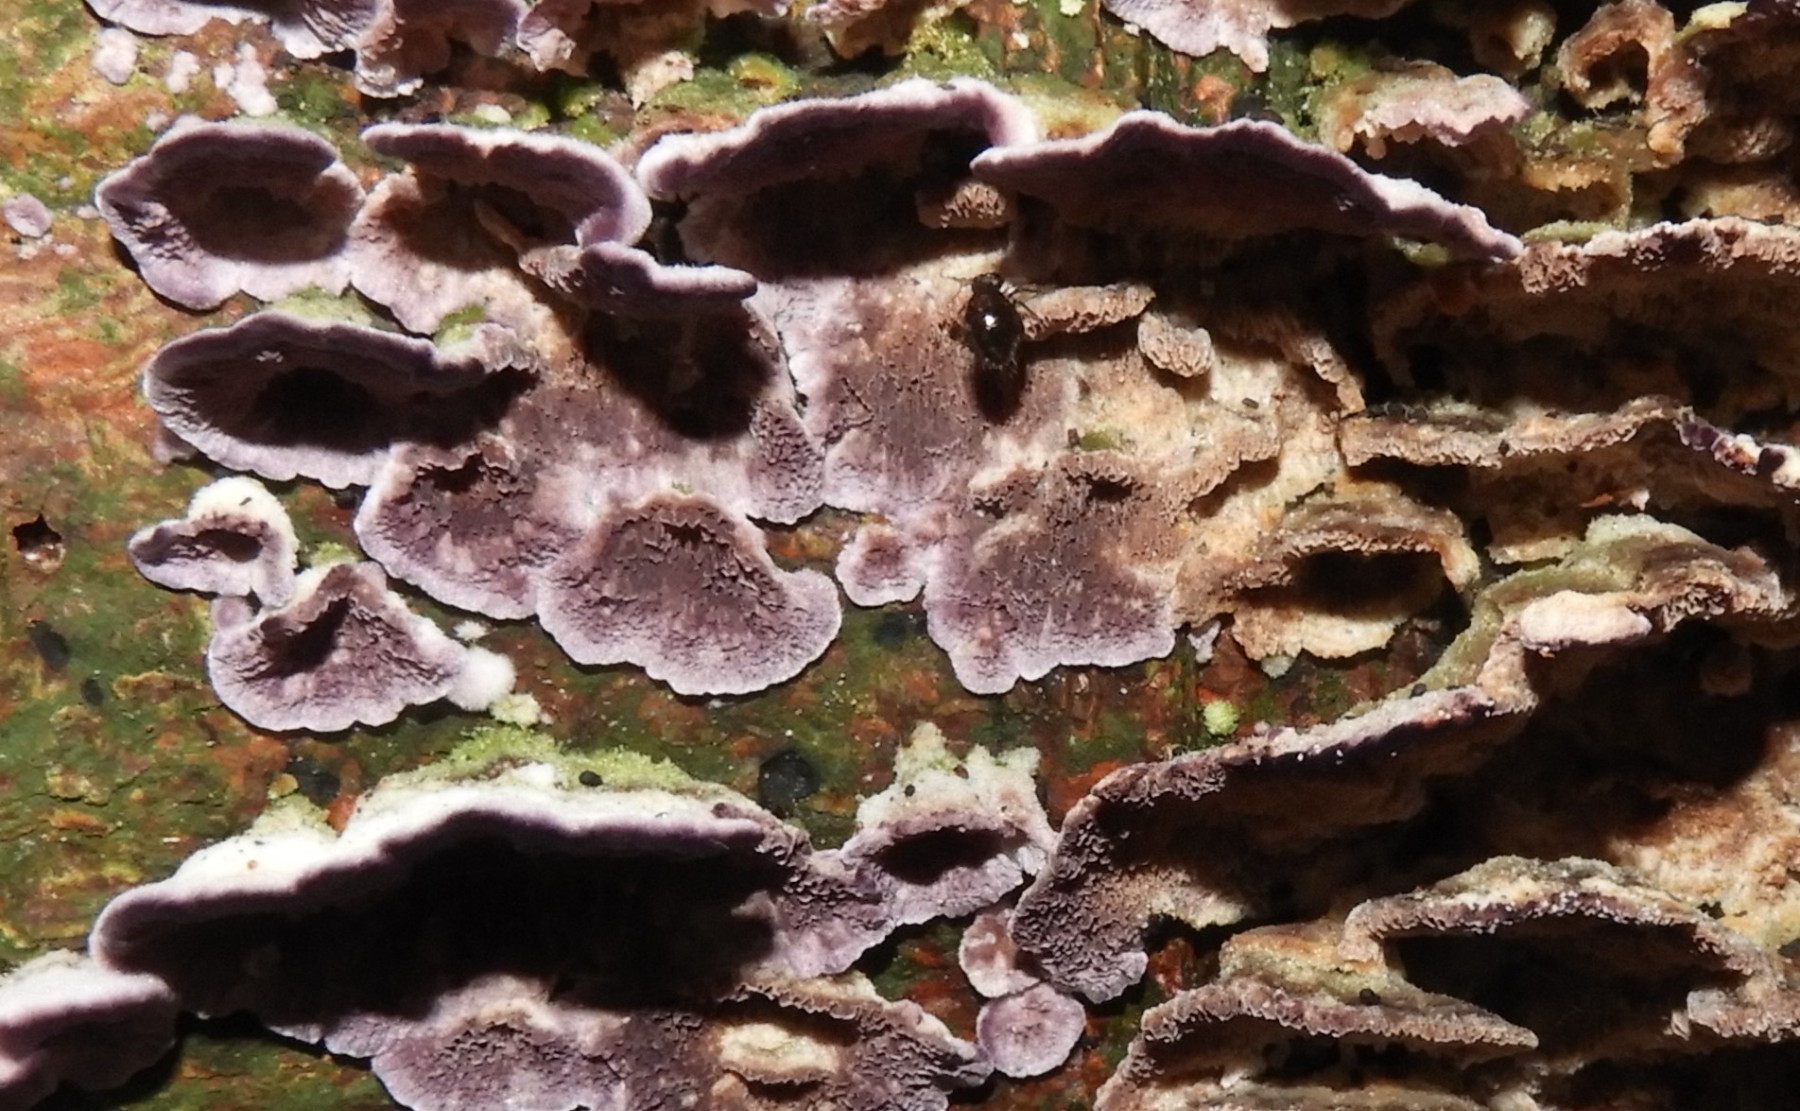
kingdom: Fungi
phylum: Basidiomycota
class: Agaricomycetes
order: Hymenochaetales
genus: Trichaptum
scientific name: Trichaptum abietinum
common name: almindelig violporesvamp
